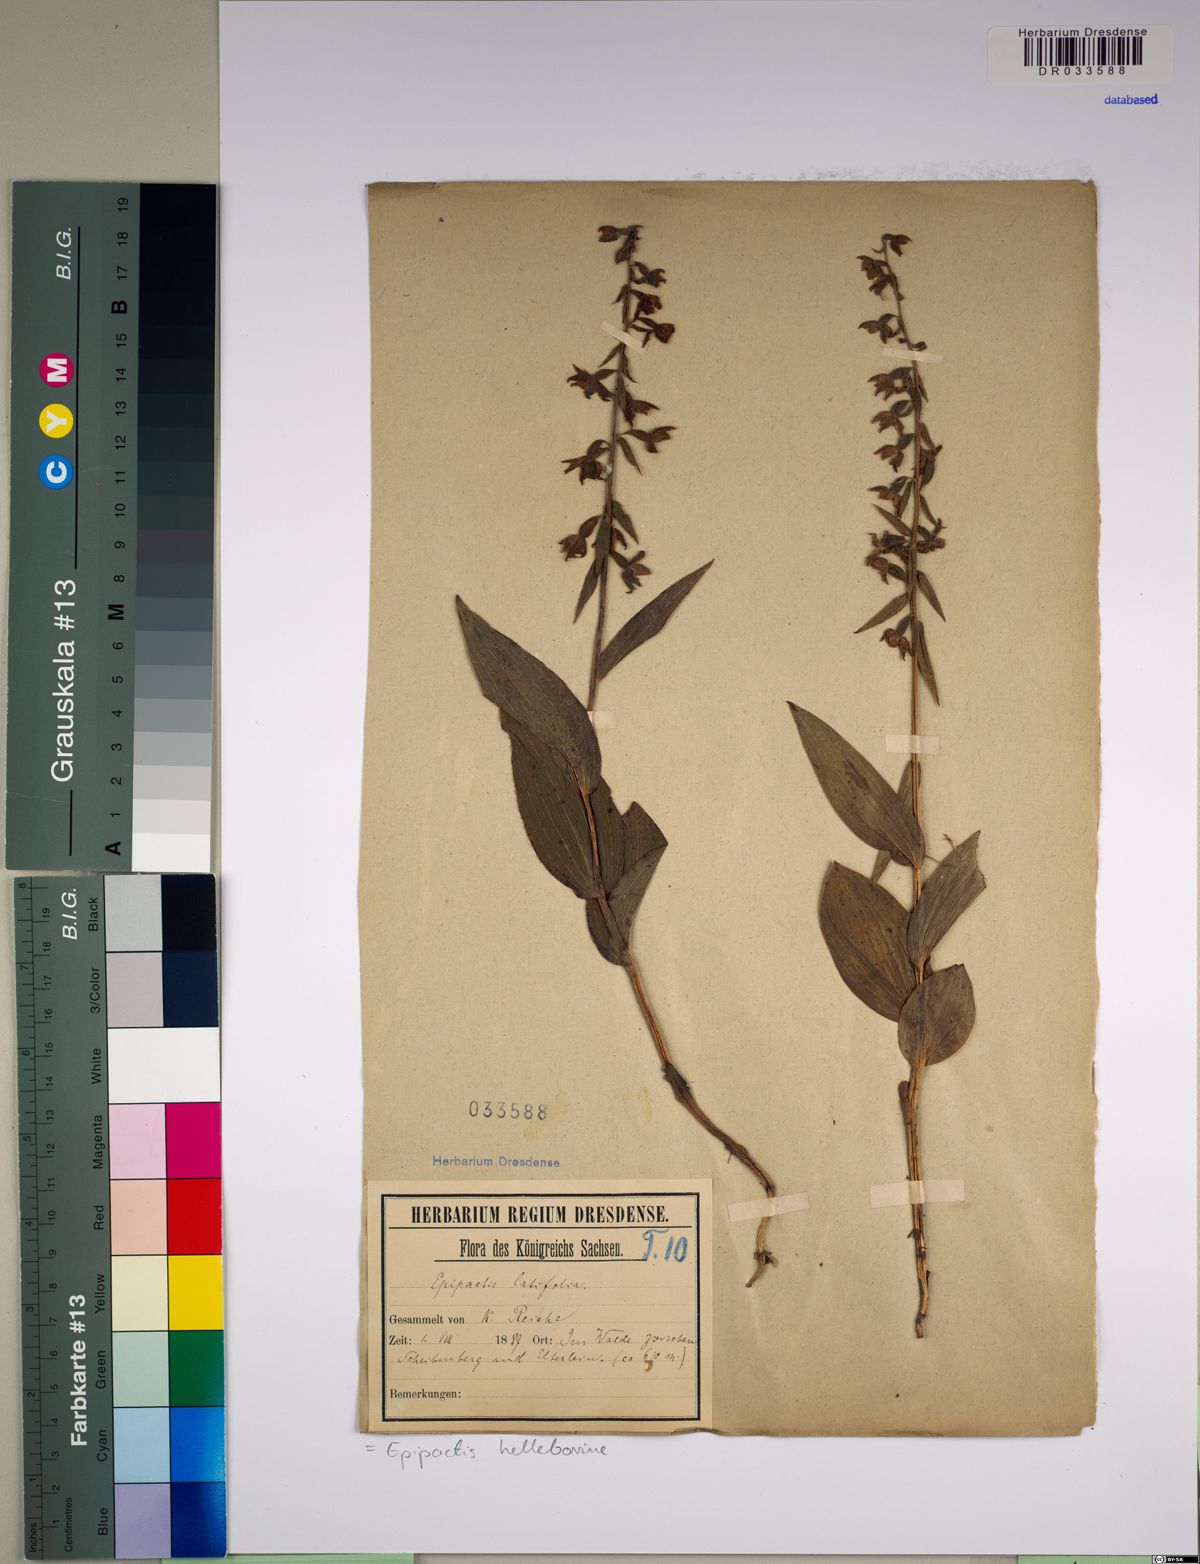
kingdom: Plantae
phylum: Tracheophyta
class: Liliopsida
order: Asparagales
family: Orchidaceae
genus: Epipactis
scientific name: Epipactis helleborine
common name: Broad-leaved helleborine
